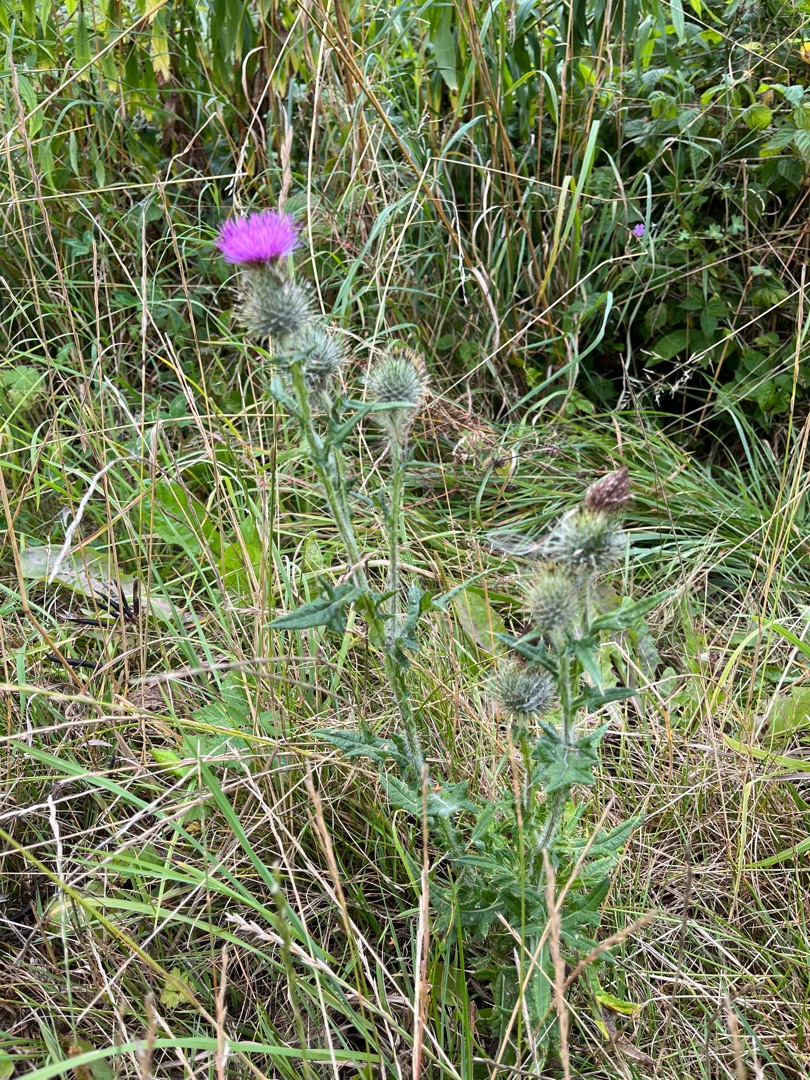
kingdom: Plantae
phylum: Tracheophyta
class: Magnoliopsida
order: Asterales
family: Asteraceae
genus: Cirsium
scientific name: Cirsium vulgare
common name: Horse-tidsel
